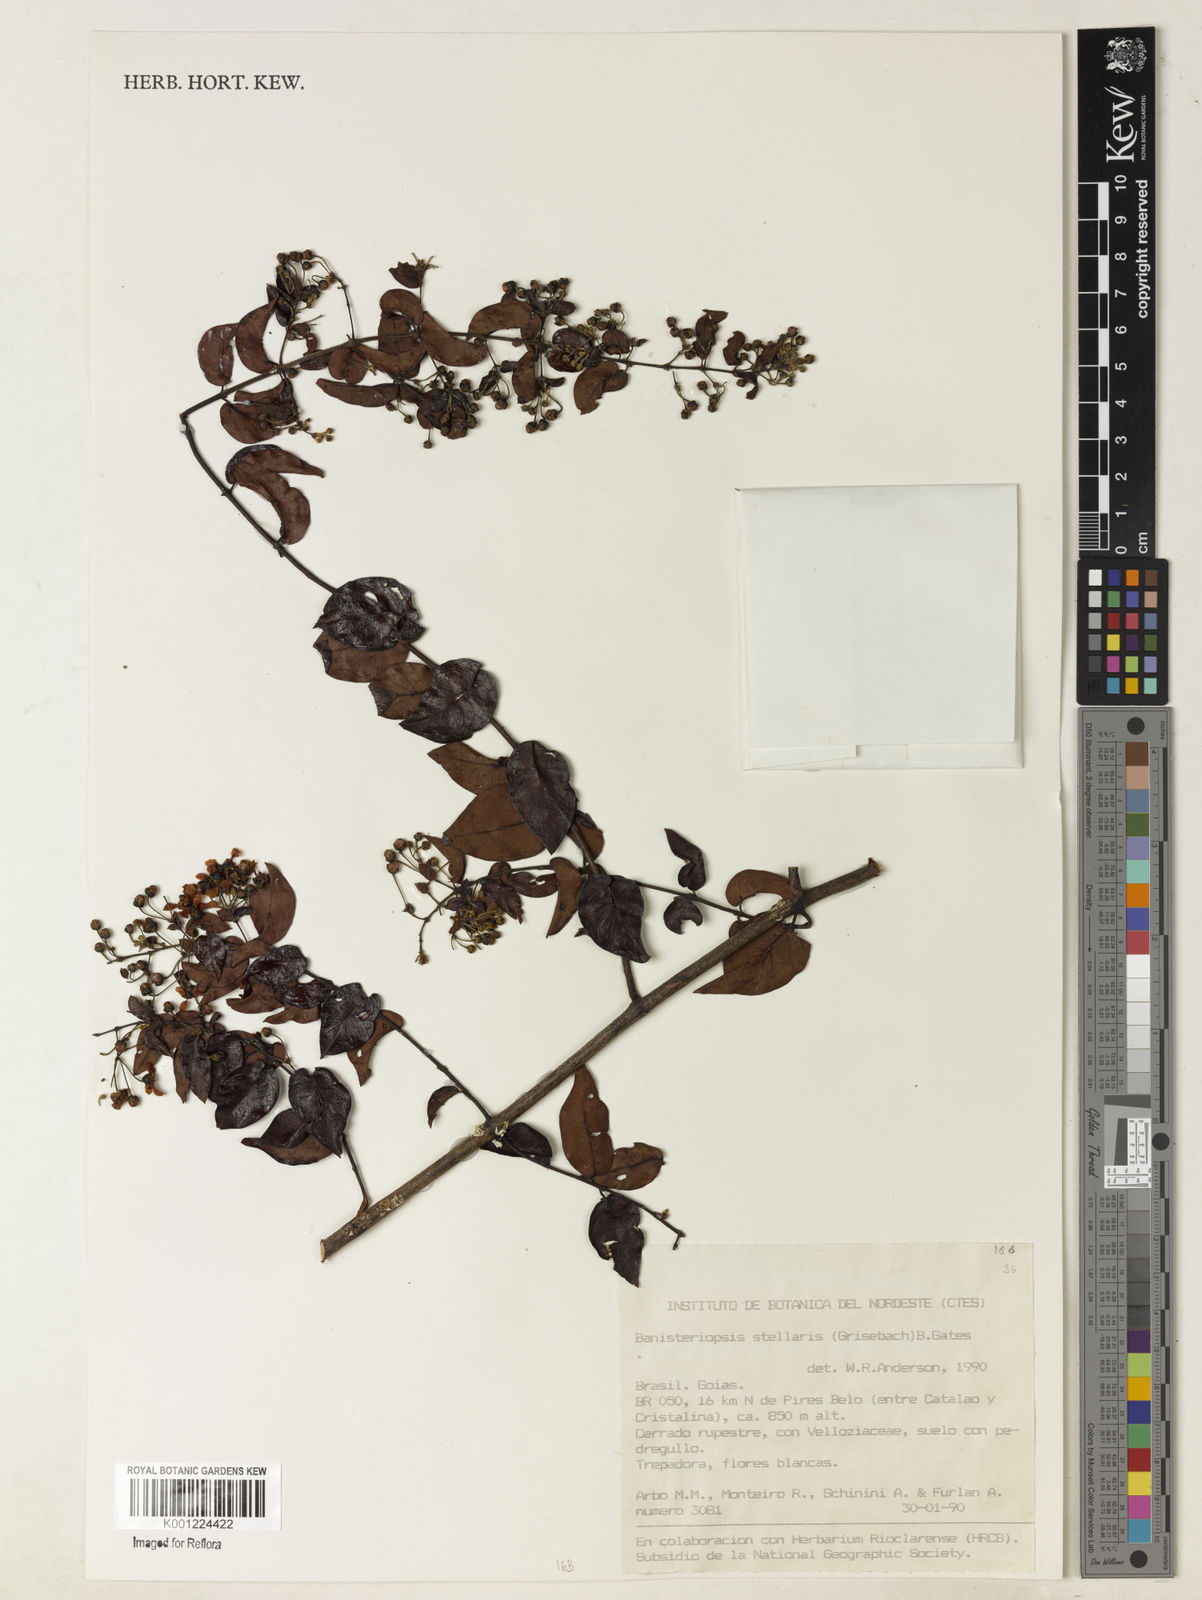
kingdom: Plantae
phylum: Tracheophyta
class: Magnoliopsida
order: Malpighiales
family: Malpighiaceae
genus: Banisteriopsis
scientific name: Banisteriopsis stellaris
